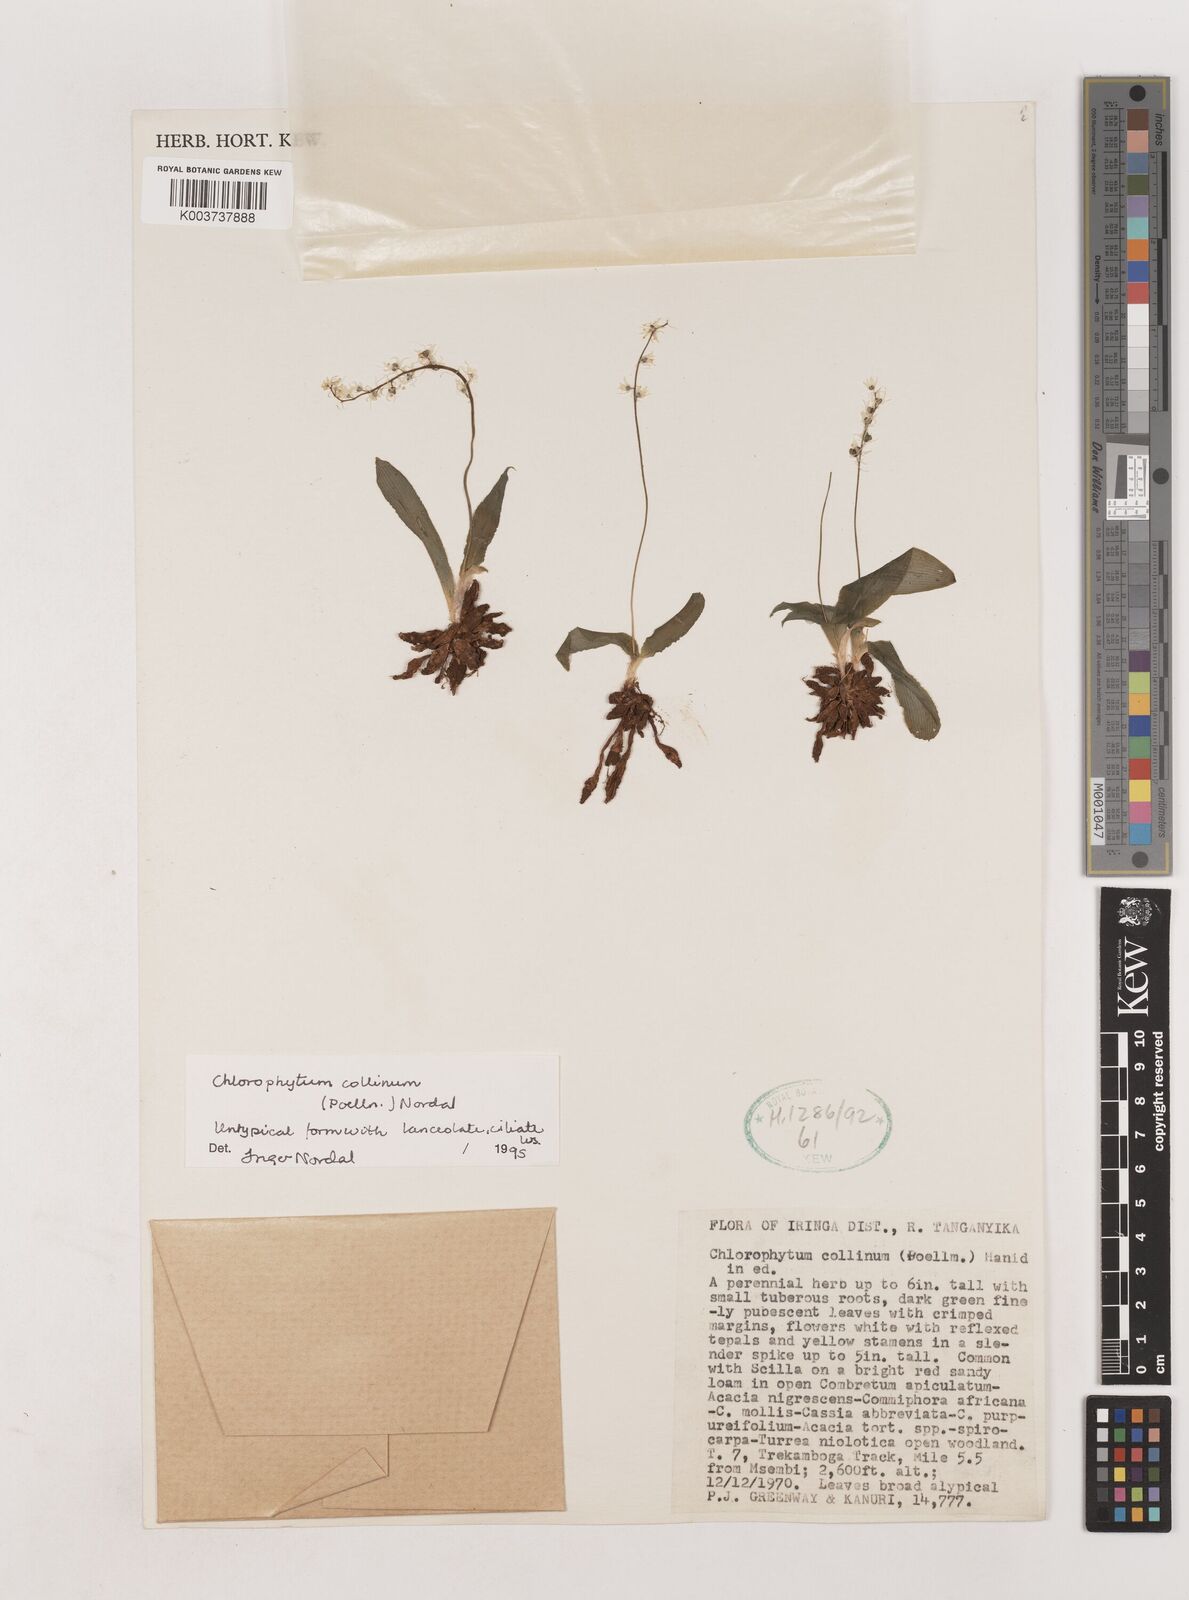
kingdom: Plantae
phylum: Tracheophyta
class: Liliopsida
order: Asparagales
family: Asparagaceae
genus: Chlorophytum
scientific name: Chlorophytum collinum
